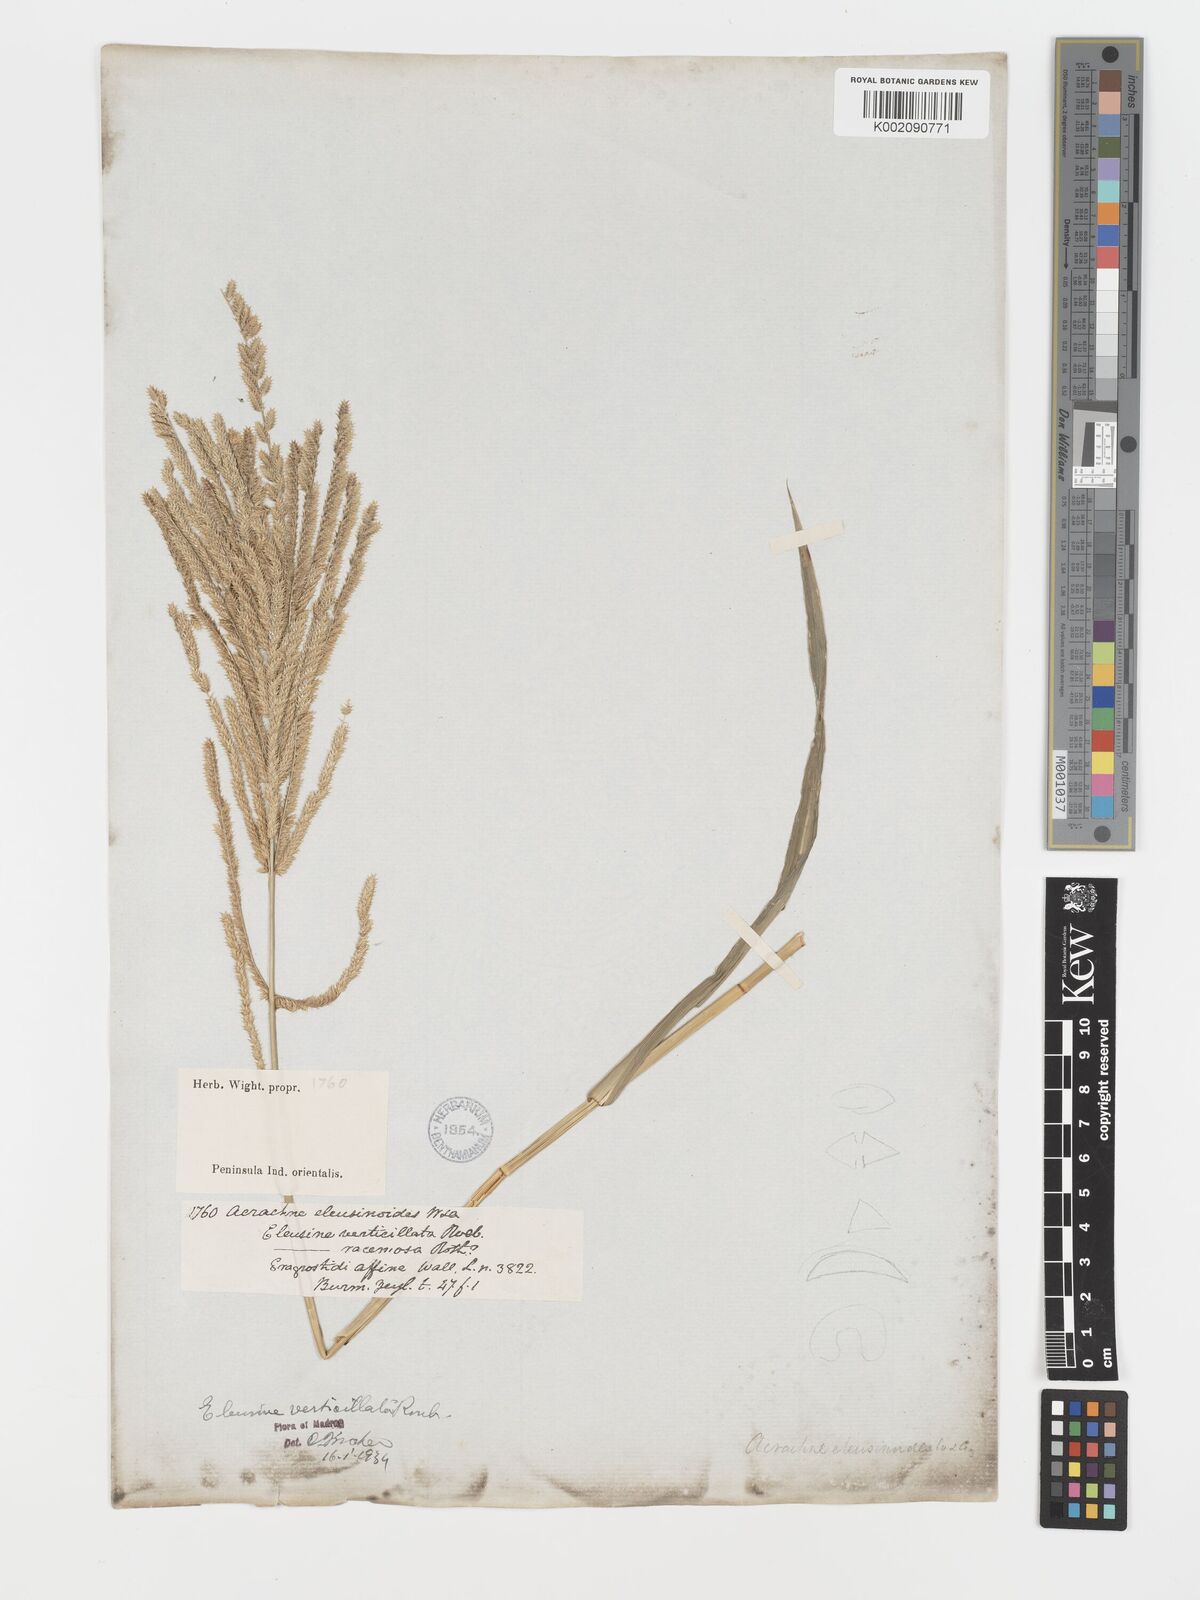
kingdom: Plantae
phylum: Tracheophyta
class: Liliopsida
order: Poales
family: Poaceae
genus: Acrachne
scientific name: Acrachne racemosa
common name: Goosegrass
